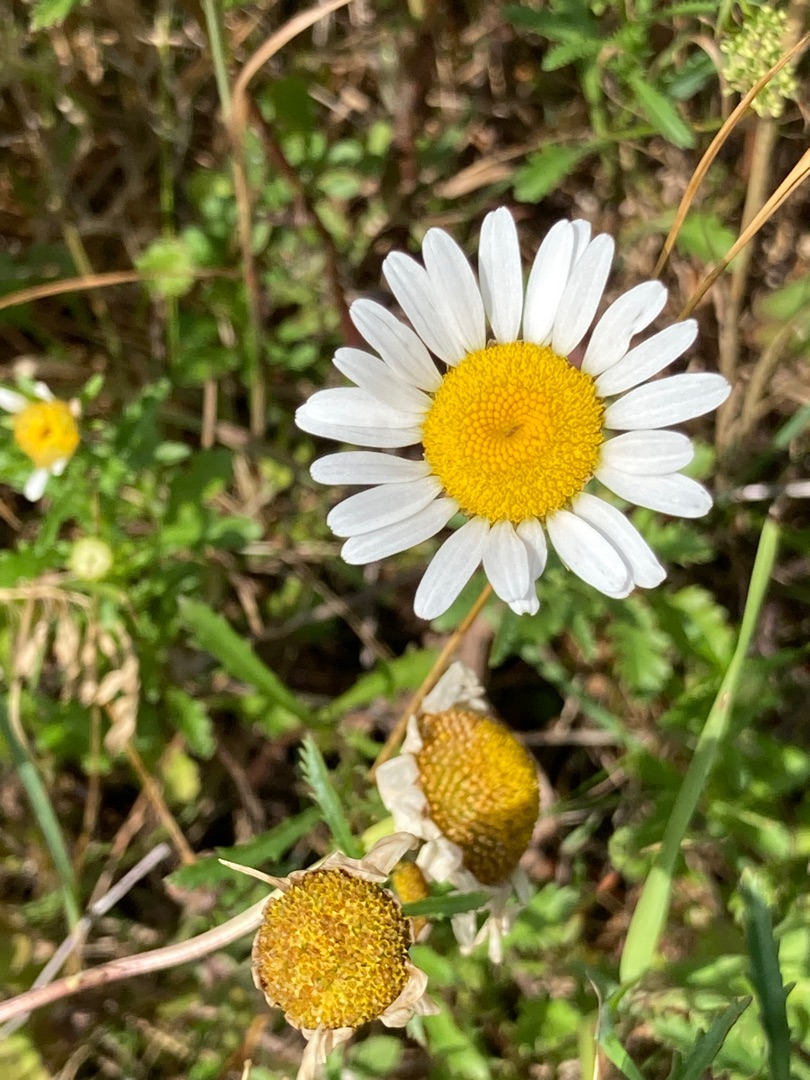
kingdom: Plantae
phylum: Tracheophyta
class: Magnoliopsida
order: Asterales
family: Asteraceae
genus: Leucanthemum
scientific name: Leucanthemum vulgare
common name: Hvid okseøje
